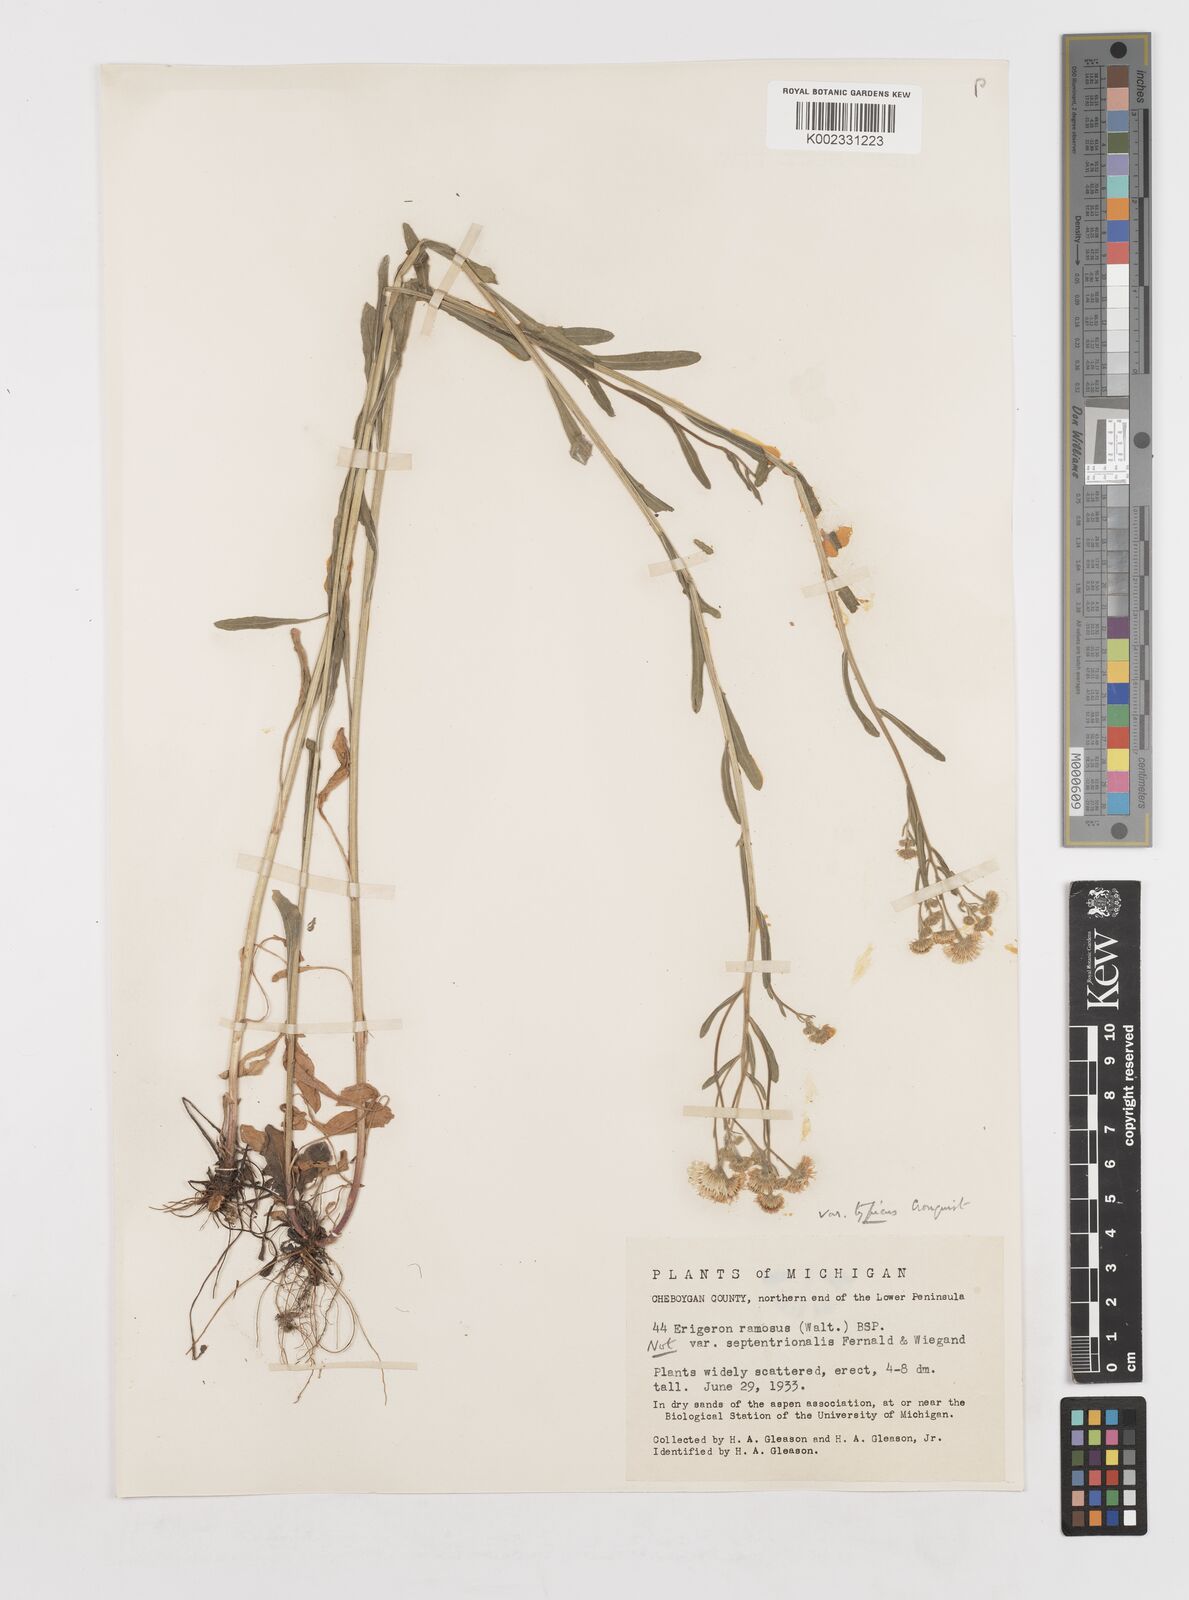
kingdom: Plantae
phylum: Tracheophyta
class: Magnoliopsida
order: Asterales
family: Asteraceae
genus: Erigeron
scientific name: Erigeron strigosus
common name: Common eastern fleabane
